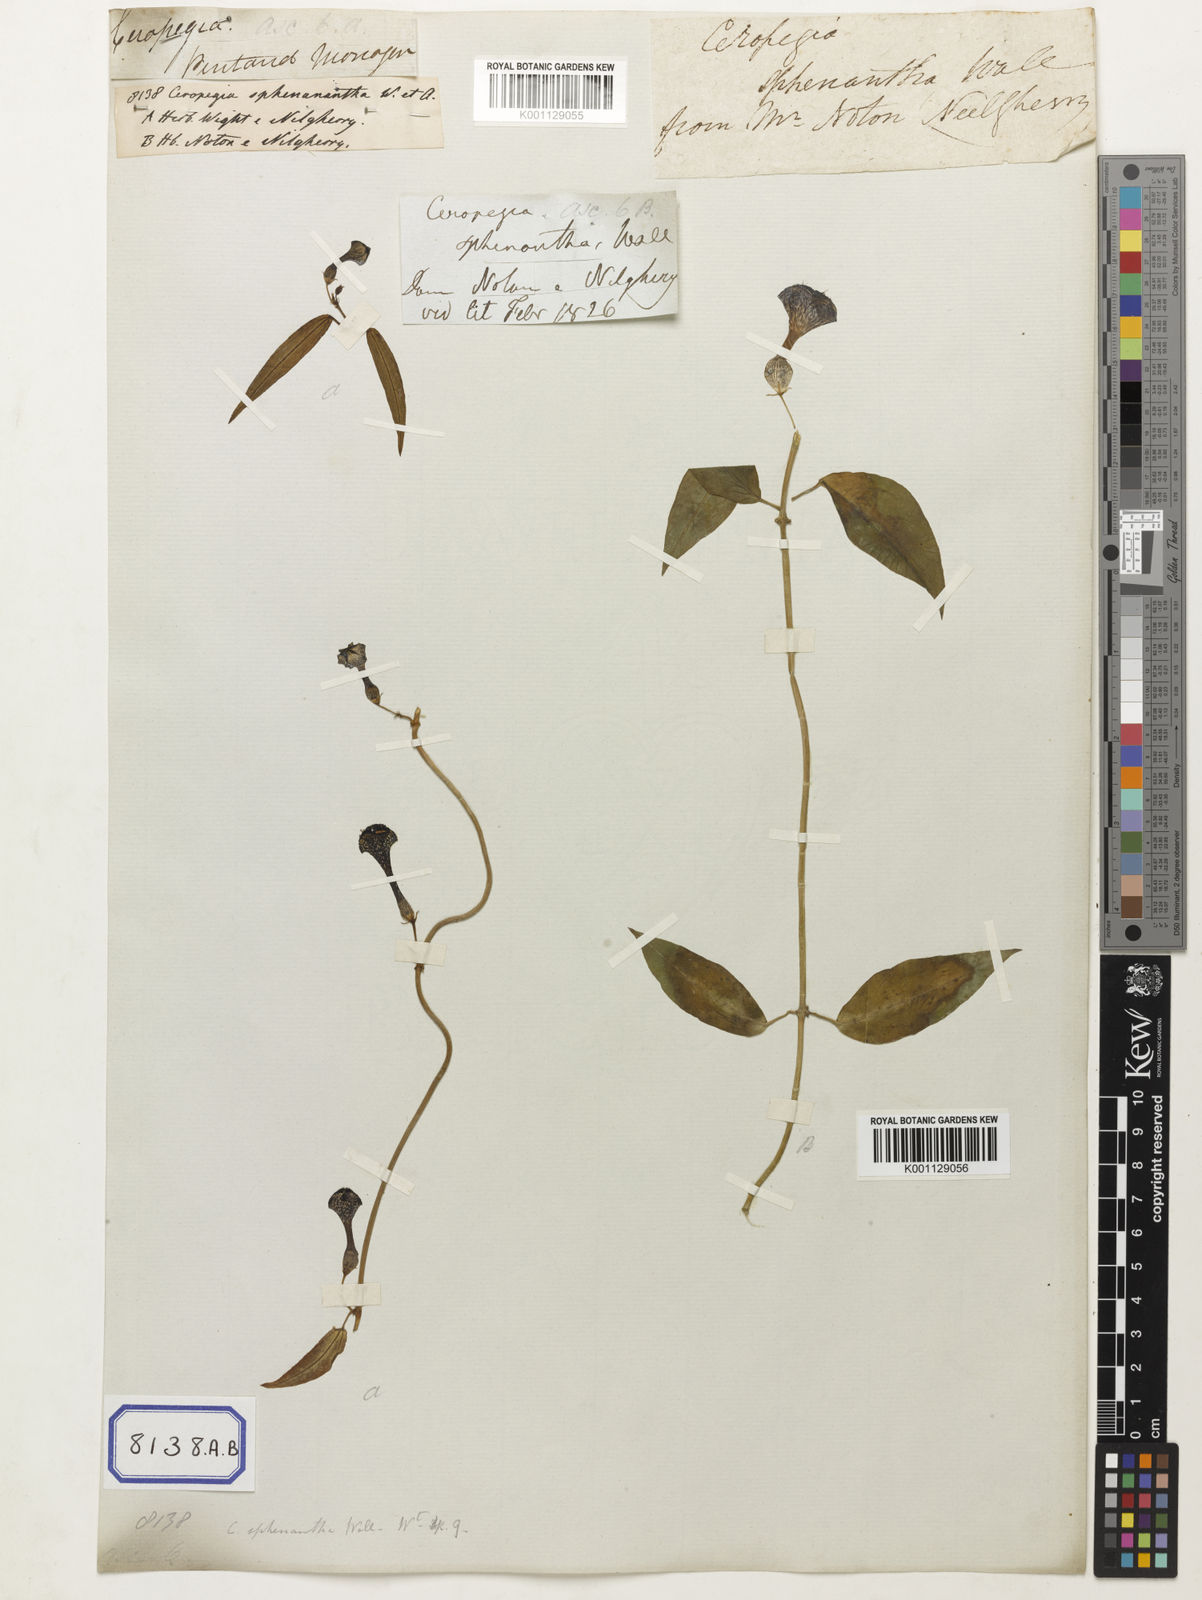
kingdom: Plantae
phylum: Tracheophyta
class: Magnoliopsida
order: Gentianales
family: Apocynaceae
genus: Ceropegia
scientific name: Ceropegia elegans
